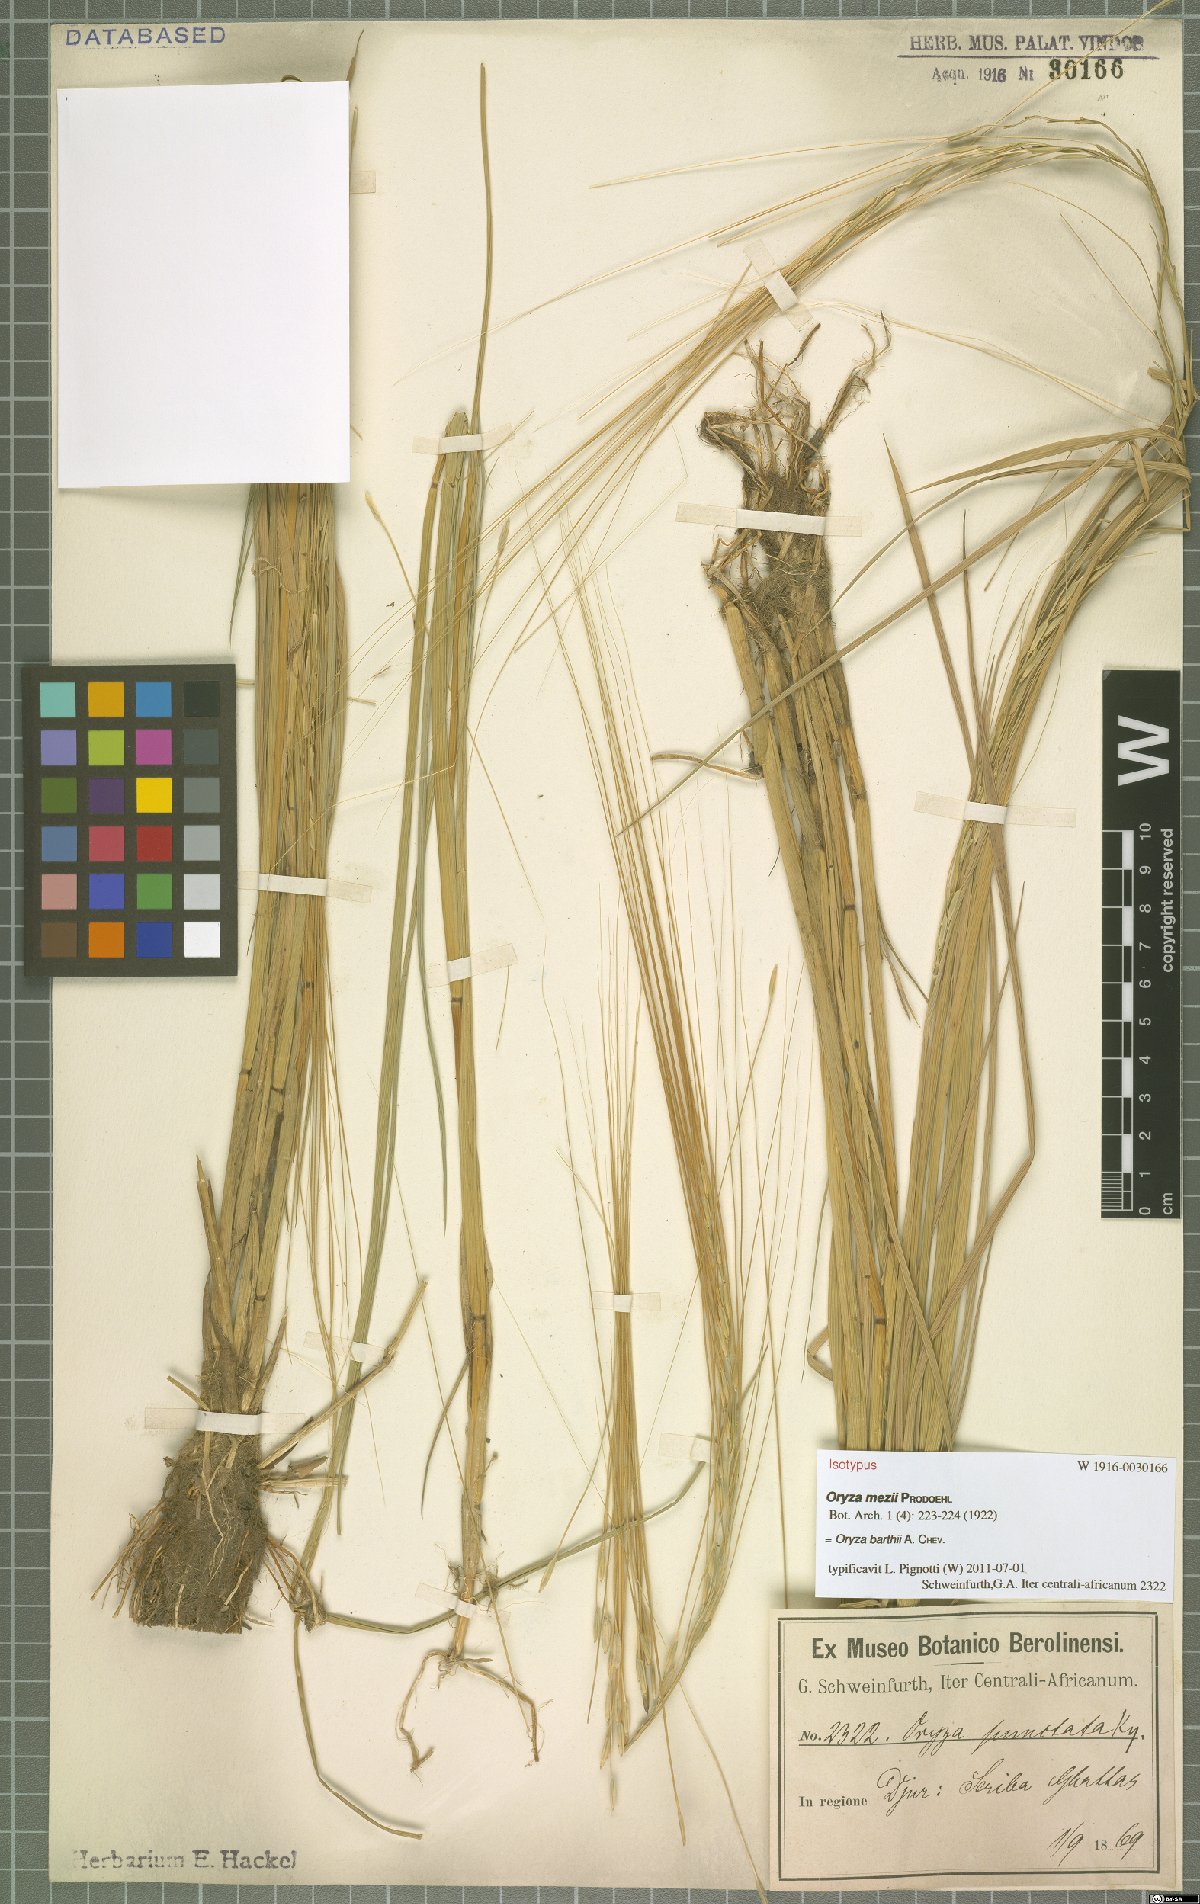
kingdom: Plantae
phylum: Tracheophyta
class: Liliopsida
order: Poales
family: Poaceae
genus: Oryza
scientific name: Oryza barthii
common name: Wild rice
